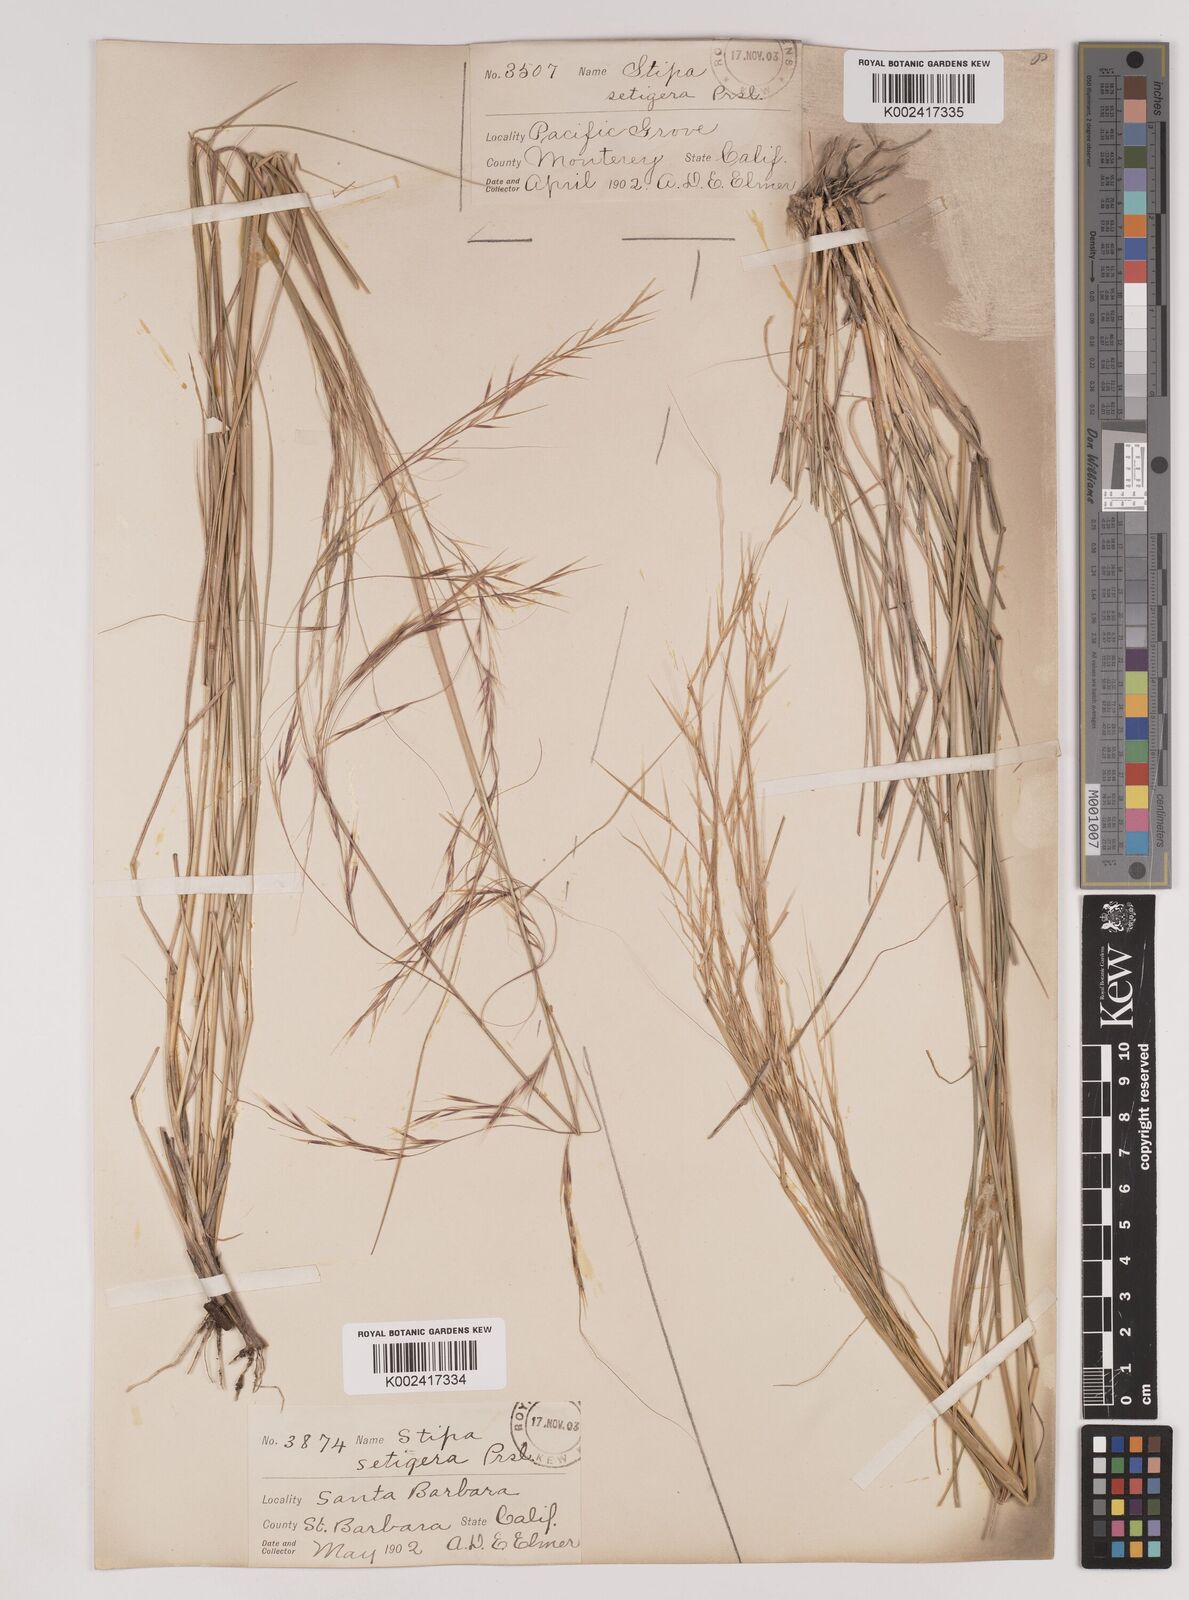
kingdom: Plantae
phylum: Tracheophyta
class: Liliopsida
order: Poales
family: Poaceae
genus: Nassella
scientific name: Nassella pulchra
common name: Purple needlegrass
